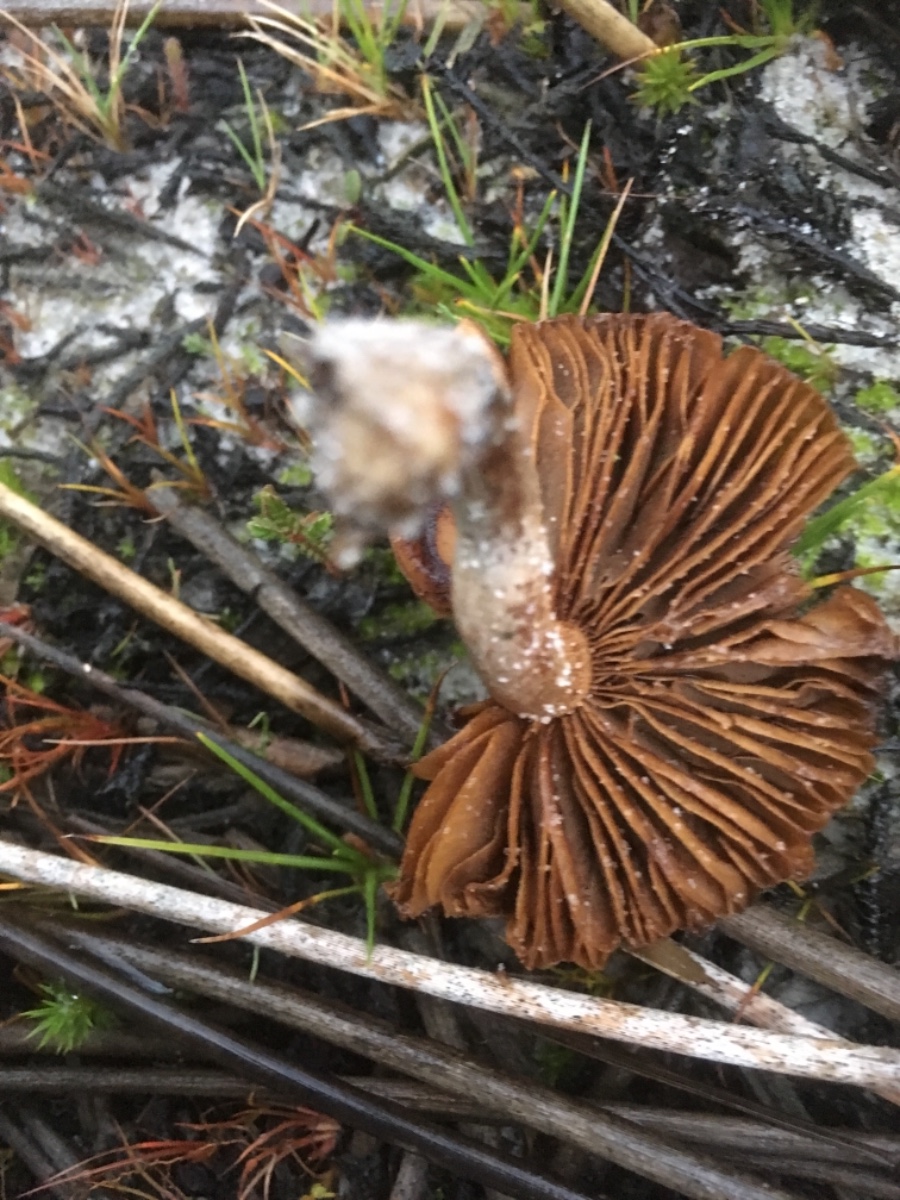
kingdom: Fungi
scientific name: Fungi
